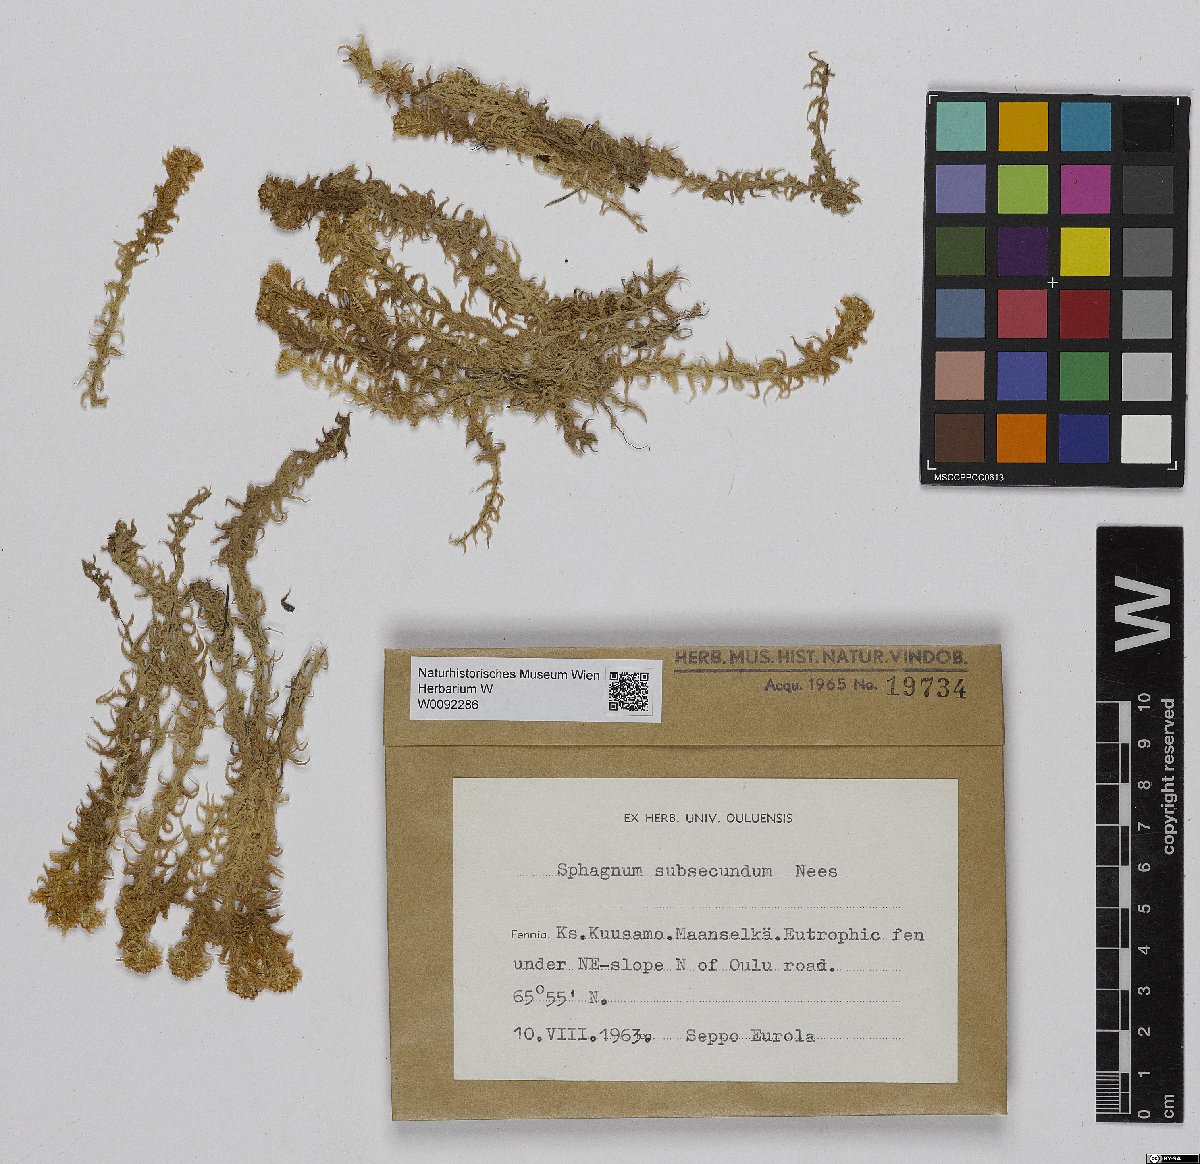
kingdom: Plantae
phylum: Bryophyta
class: Sphagnopsida
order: Sphagnales
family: Sphagnaceae
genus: Sphagnum
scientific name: Sphagnum subsecundum
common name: Orange peat moss
